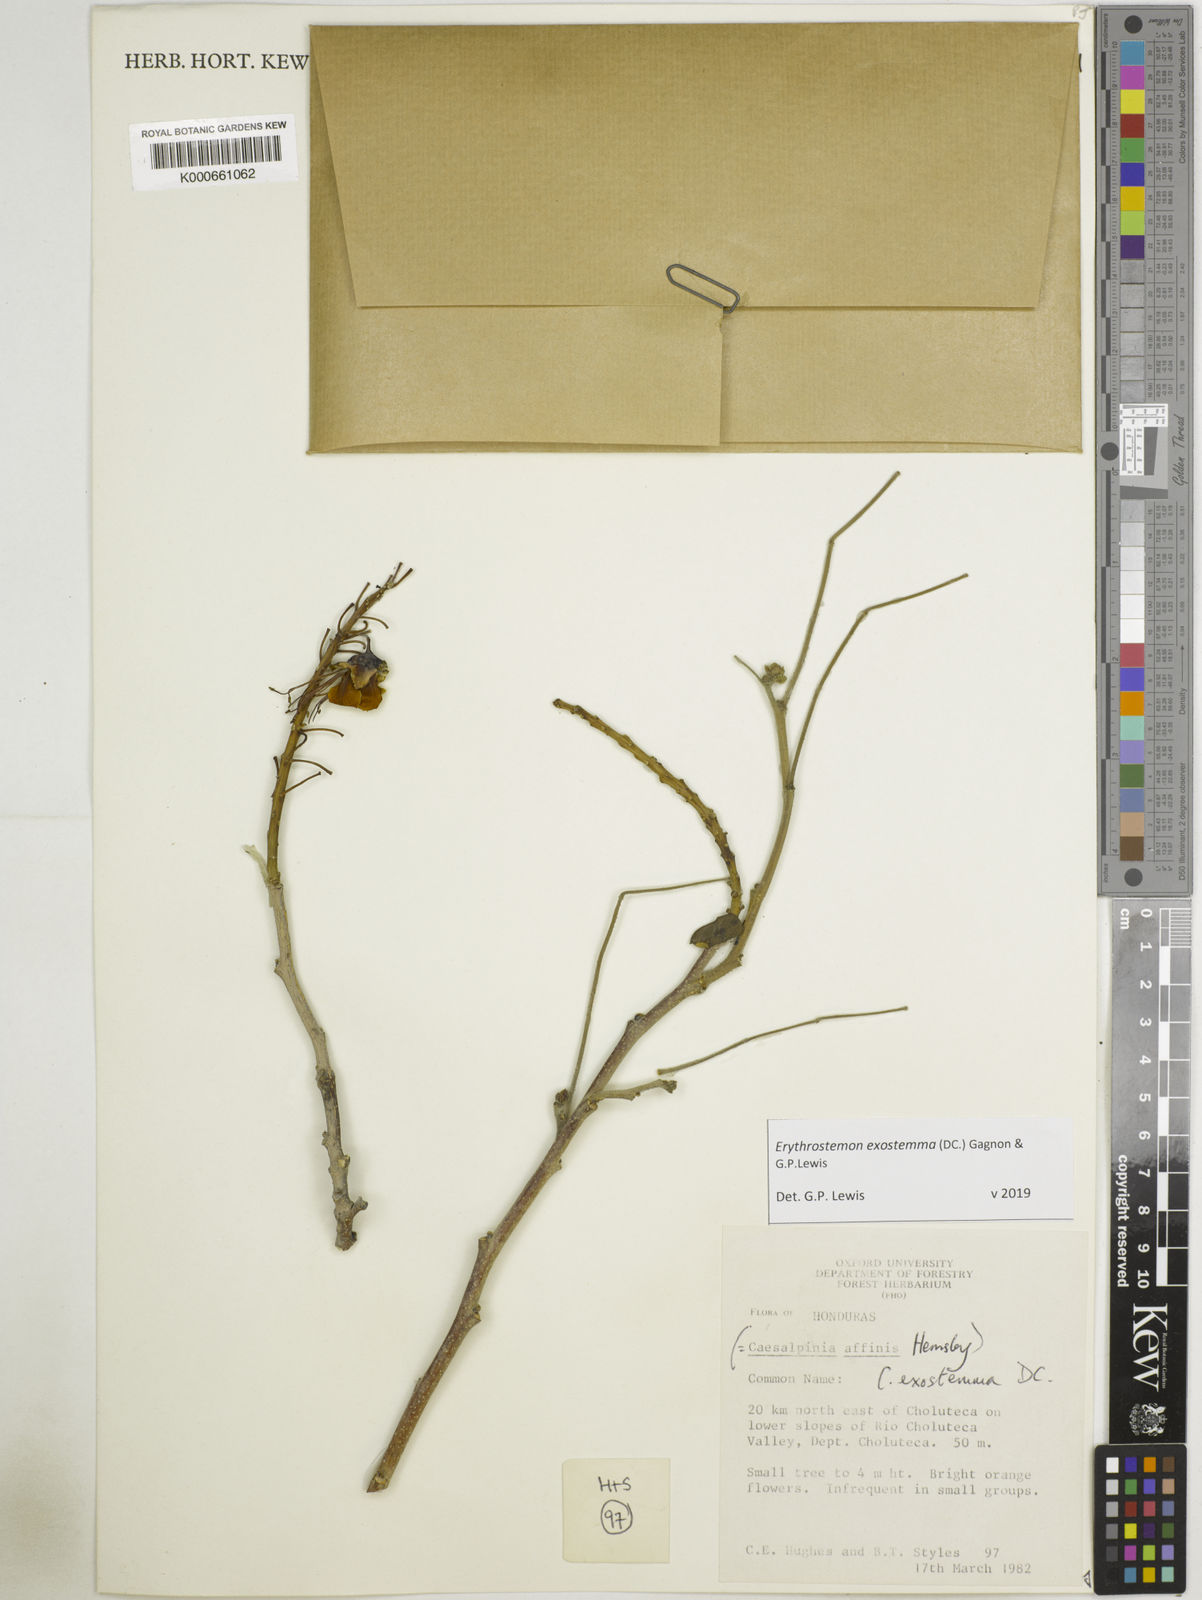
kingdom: Plantae
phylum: Tracheophyta
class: Magnoliopsida
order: Fabales
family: Fabaceae
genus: Erythrostemon
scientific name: Erythrostemon exostemma
